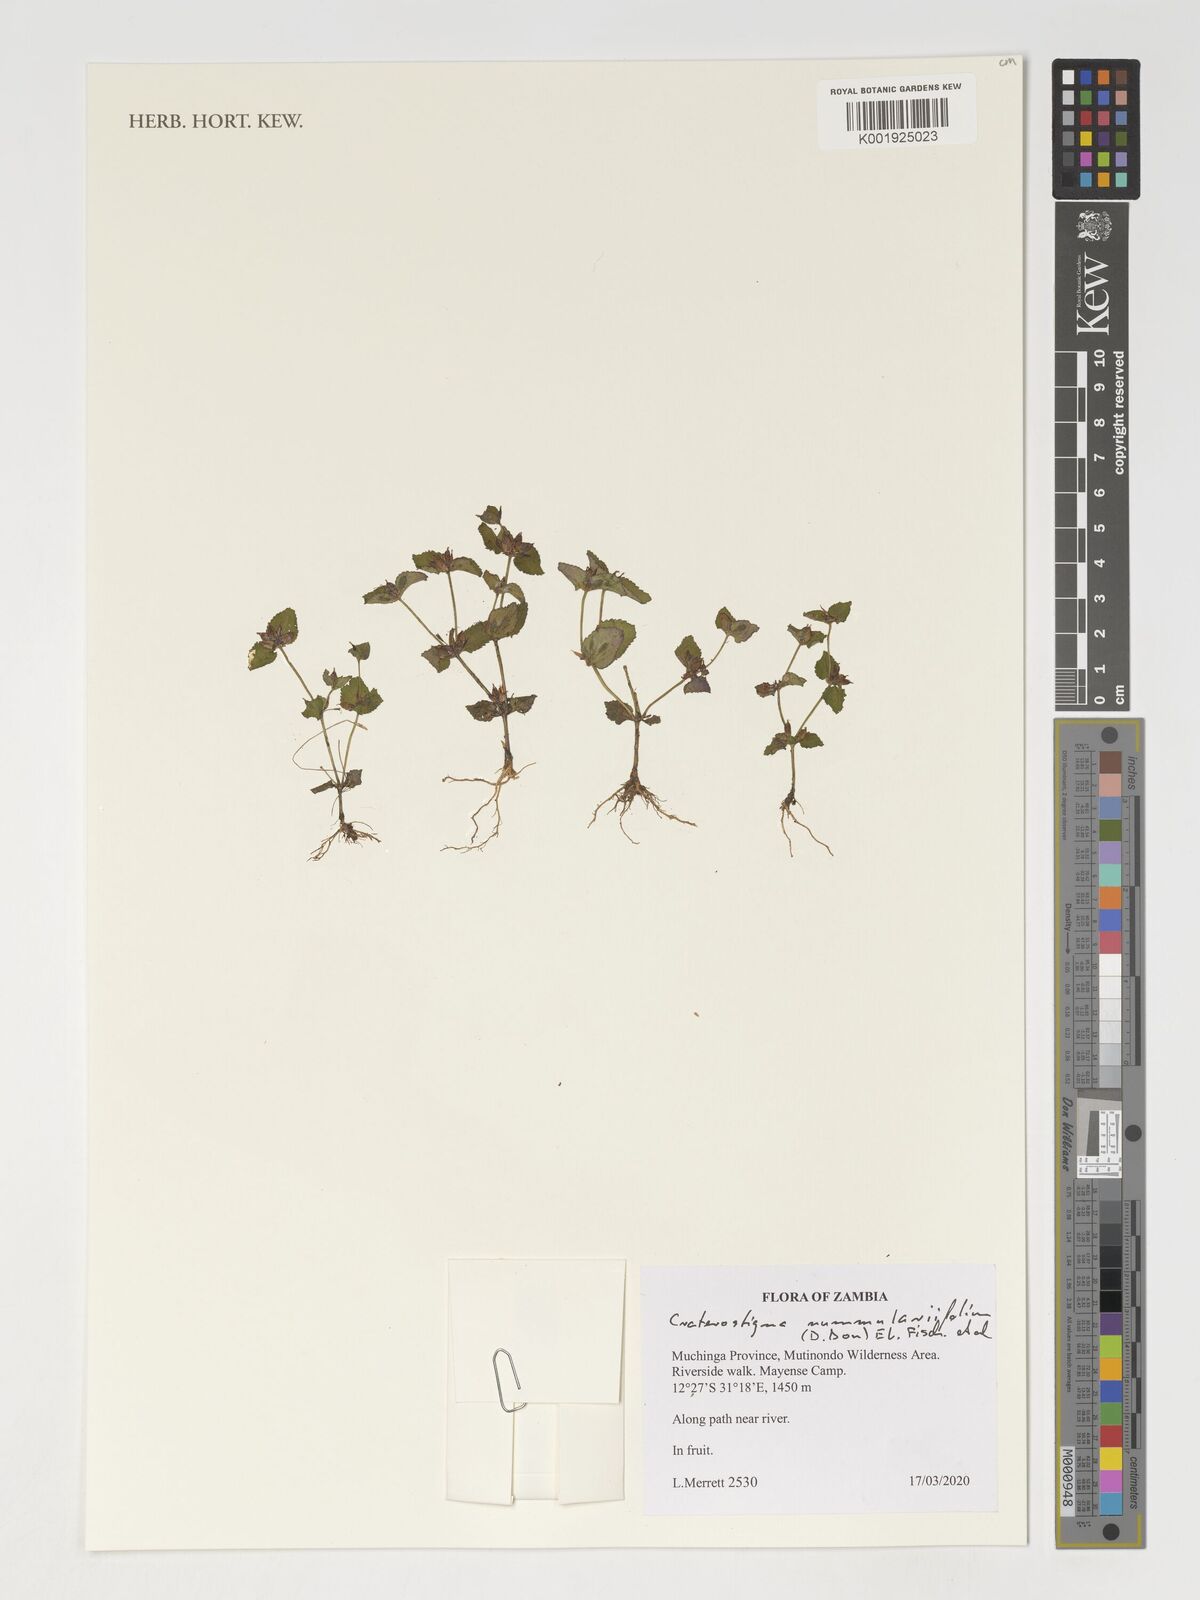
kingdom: Plantae
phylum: Tracheophyta
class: Magnoliopsida
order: Lamiales
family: Linderniaceae
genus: Craterostigma
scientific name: Craterostigma nummulariifolium
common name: False pimpernel
